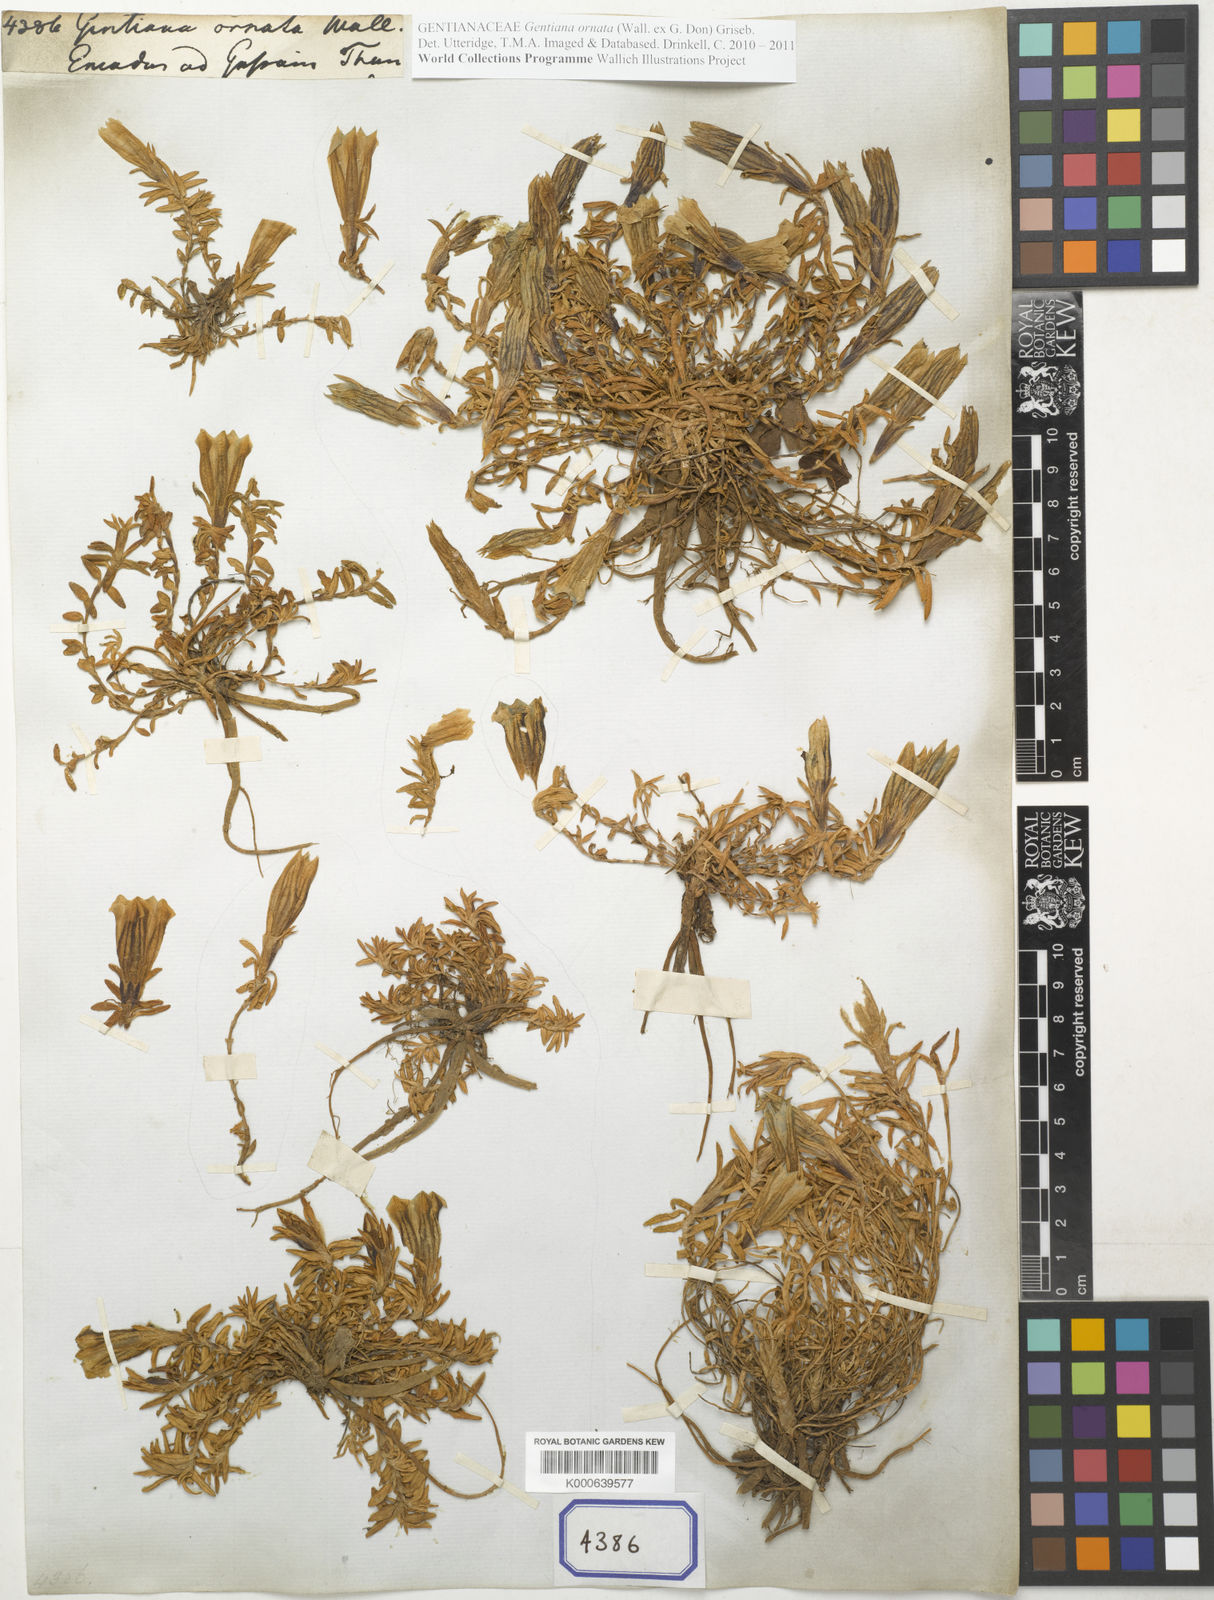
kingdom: Plantae
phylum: Tracheophyta
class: Magnoliopsida
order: Gentianales
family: Gentianaceae
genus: Gentiana
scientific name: Gentiana
